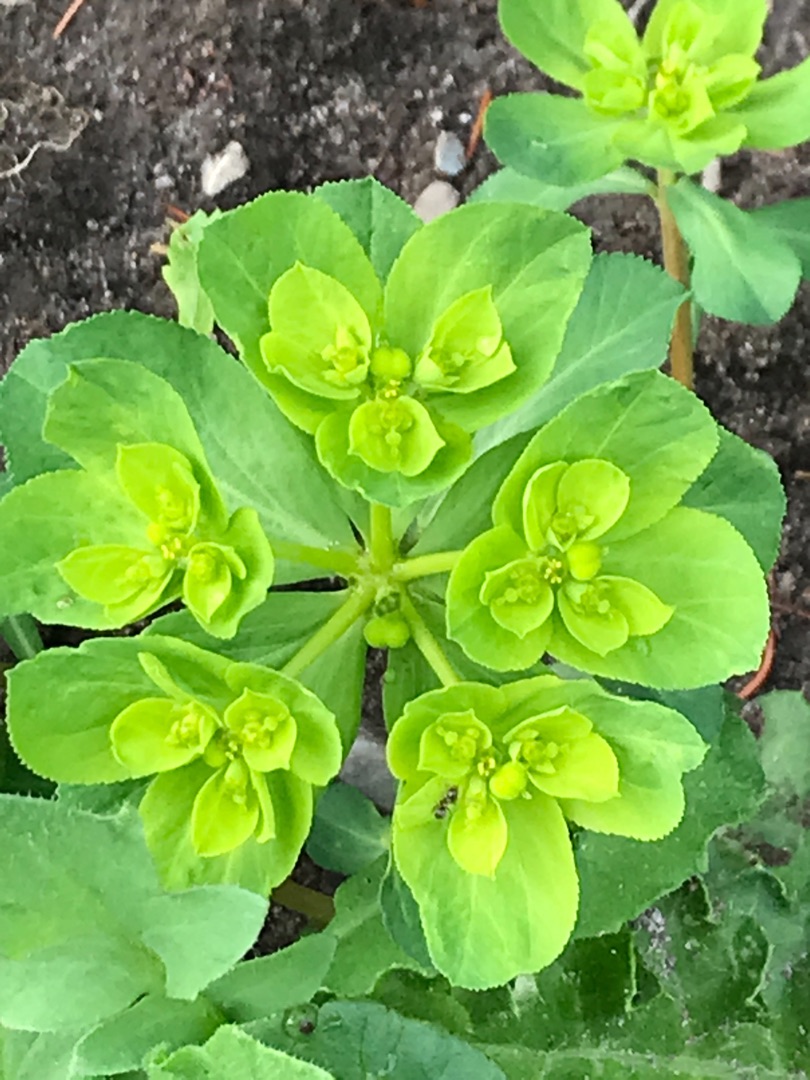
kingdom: Plantae
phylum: Tracheophyta
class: Magnoliopsida
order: Malpighiales
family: Euphorbiaceae
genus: Euphorbia
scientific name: Euphorbia helioscopia
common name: Skærm-vortemælk
